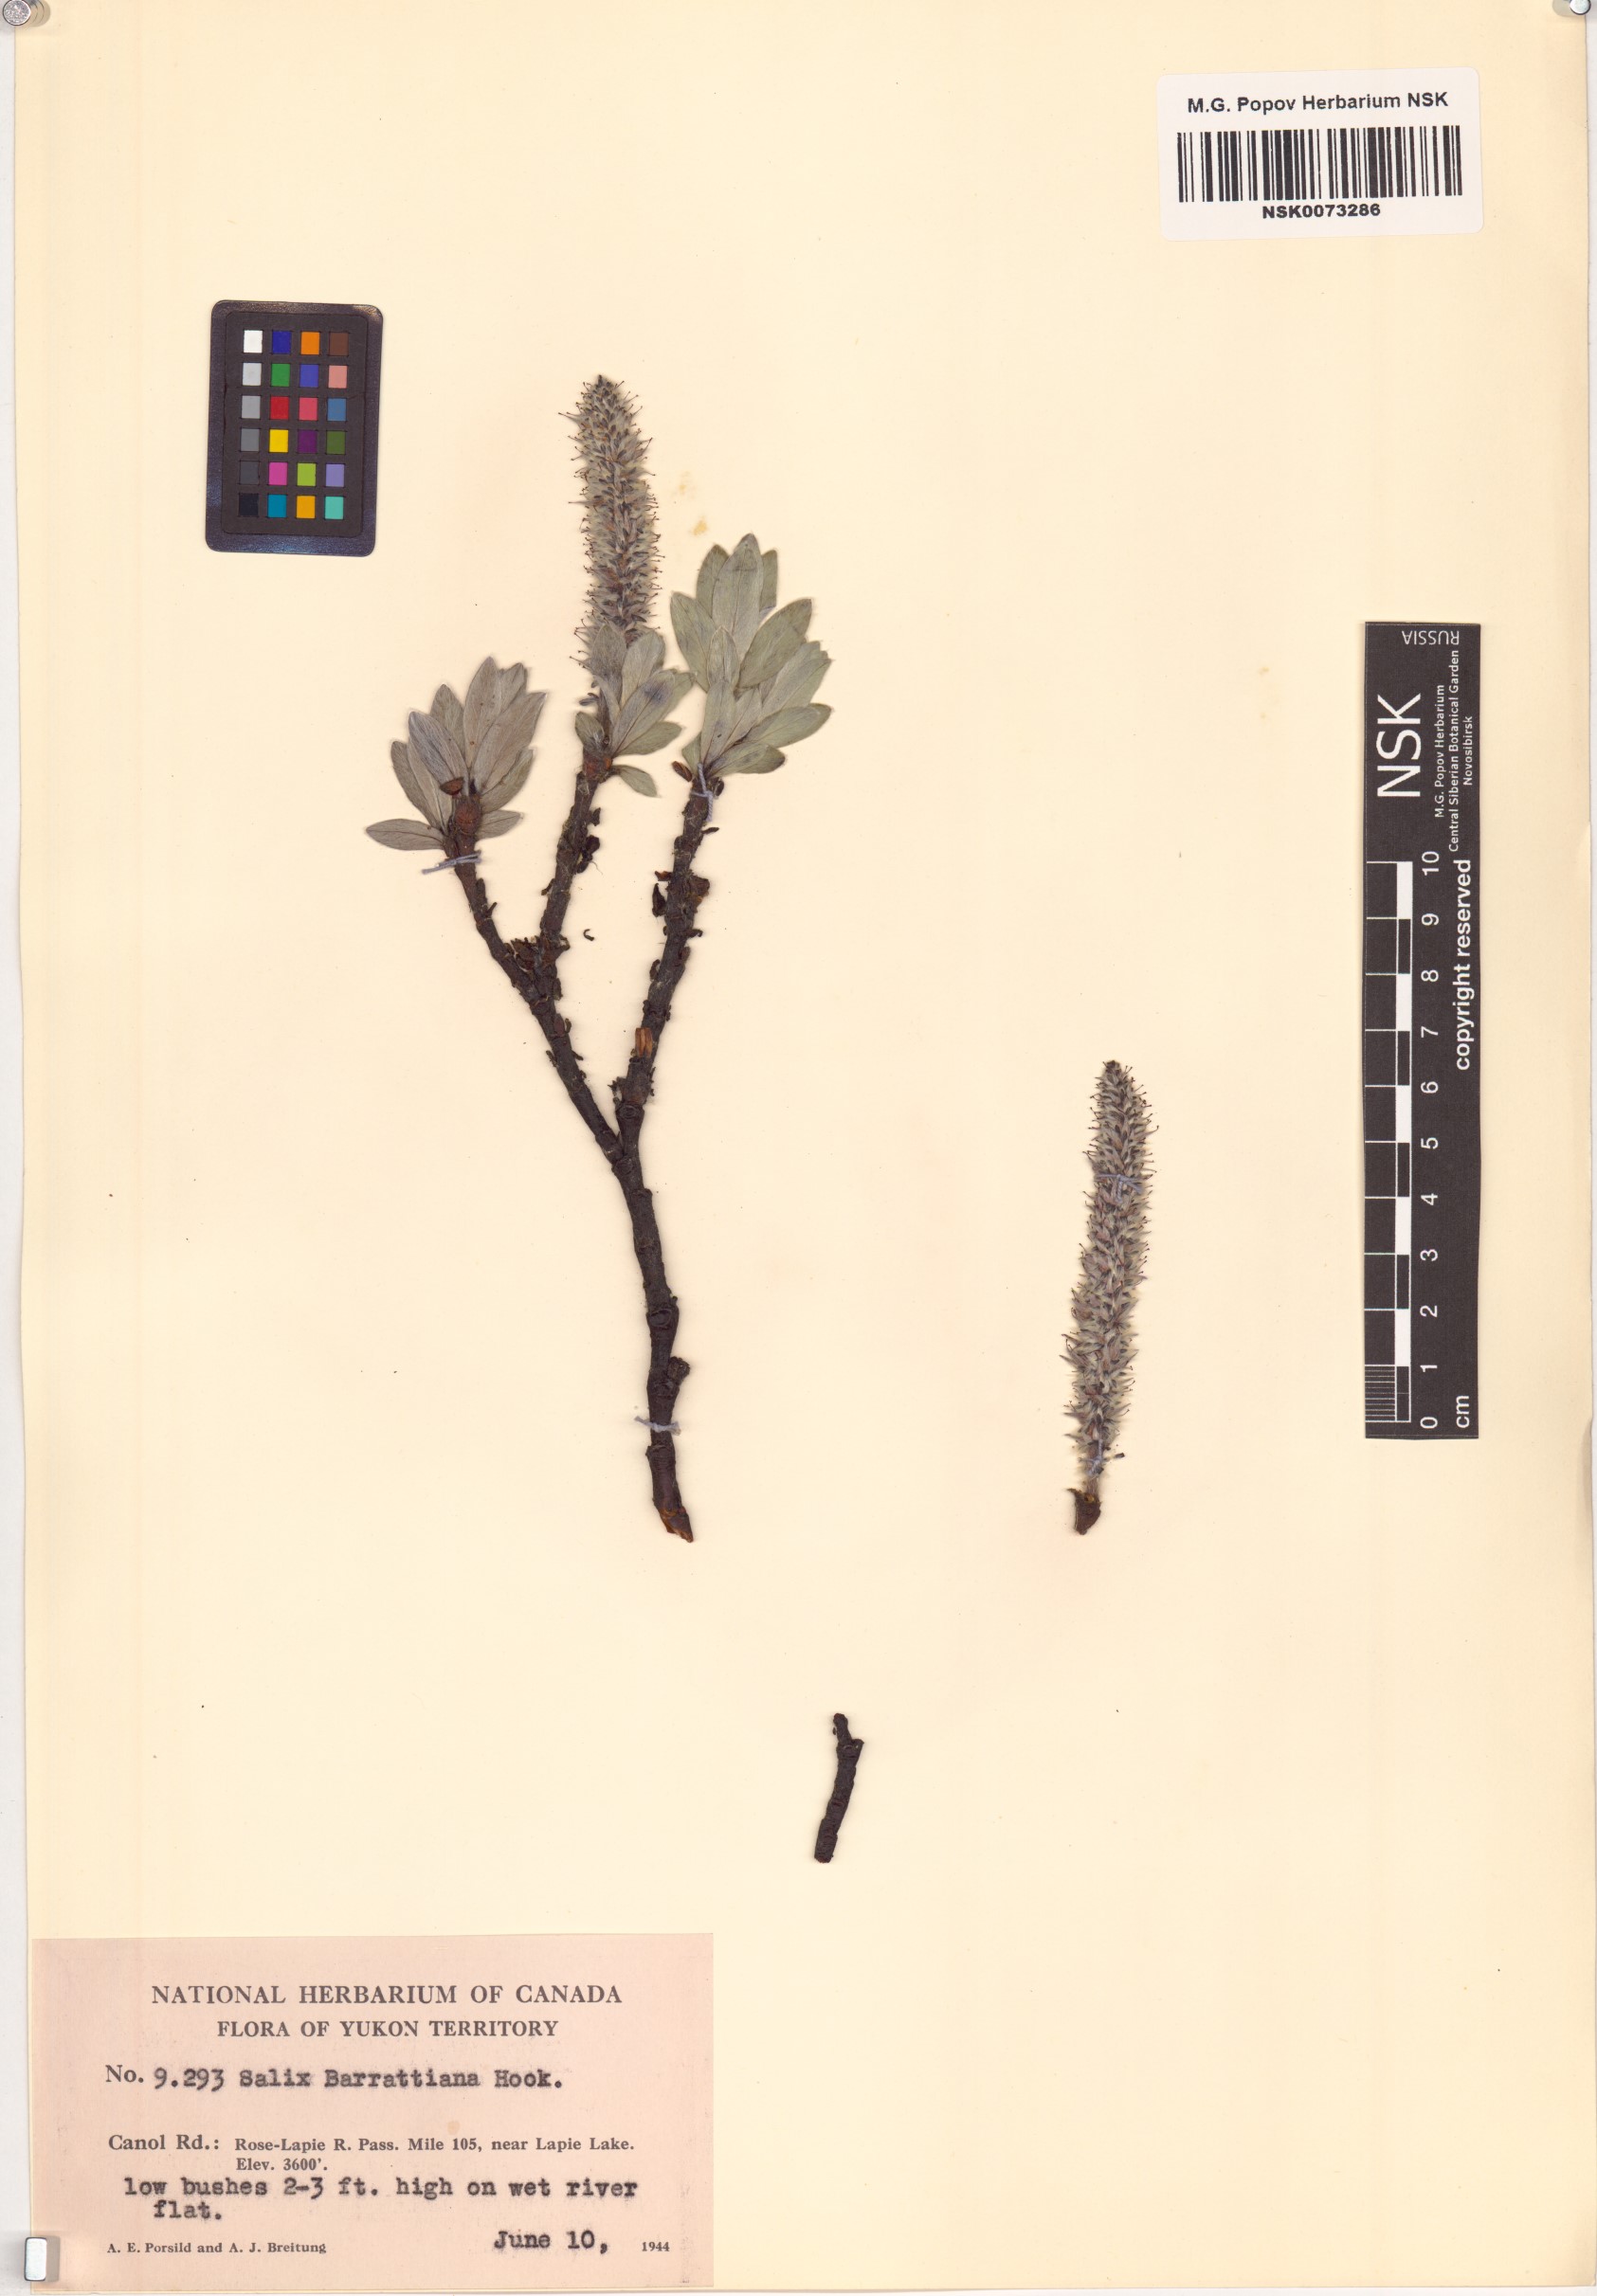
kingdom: Plantae
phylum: Tracheophyta
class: Magnoliopsida
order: Malpighiales
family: Salicaceae
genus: Salix
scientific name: Salix barrattiana
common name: Barratt's willow
